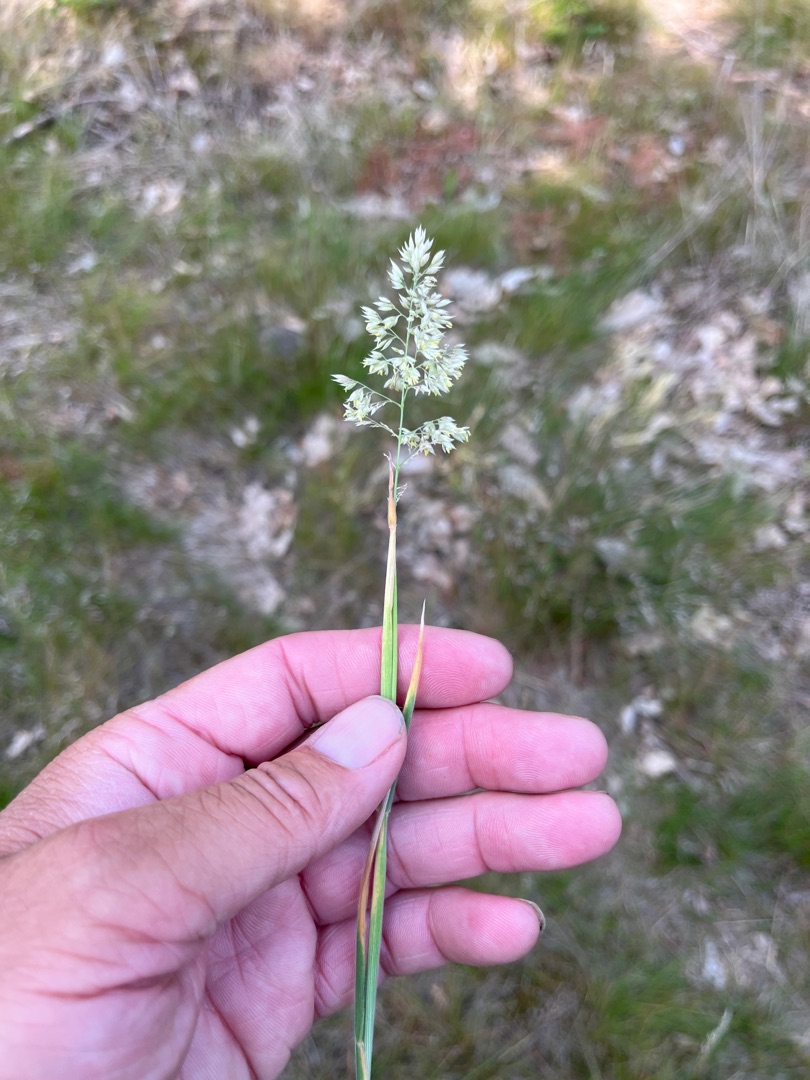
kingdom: Plantae
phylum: Tracheophyta
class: Liliopsida
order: Poales
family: Poaceae
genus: Holcus
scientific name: Holcus lanatus
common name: Fløjlsgræs
